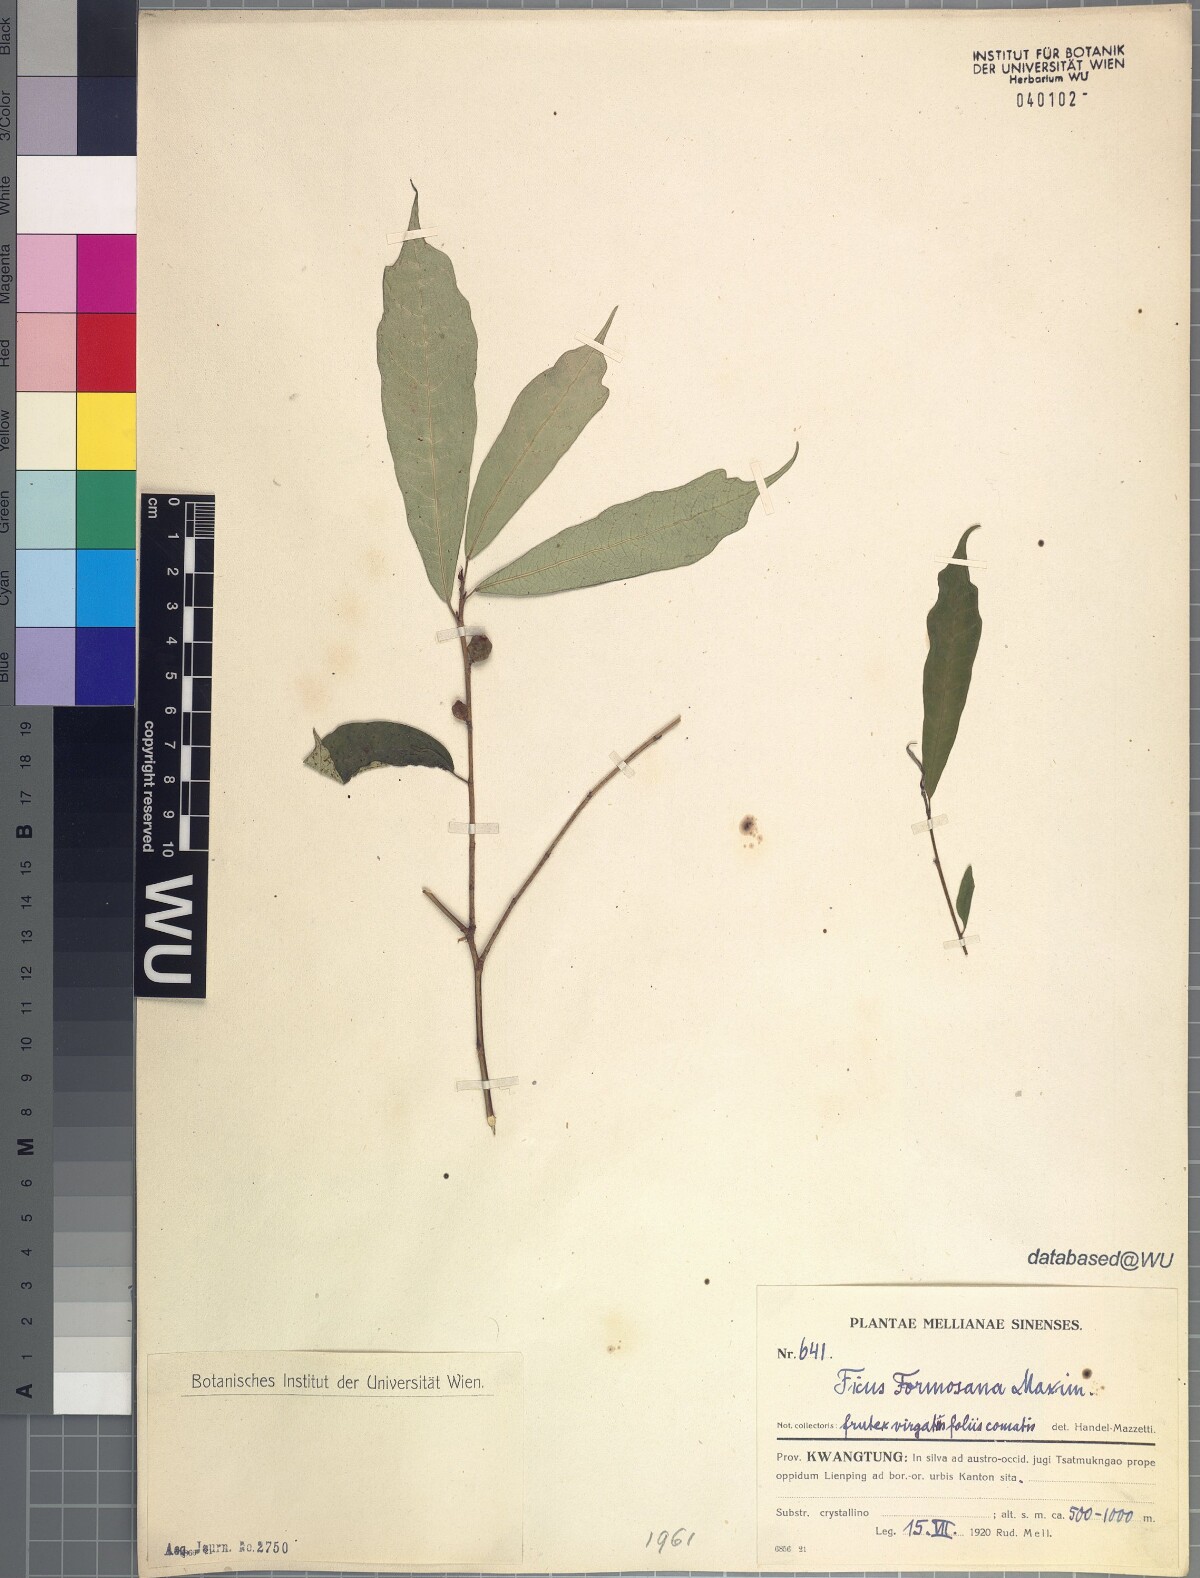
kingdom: Plantae
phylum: Tracheophyta
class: Magnoliopsida
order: Rosales
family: Moraceae
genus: Ficus
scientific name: Ficus formosana
